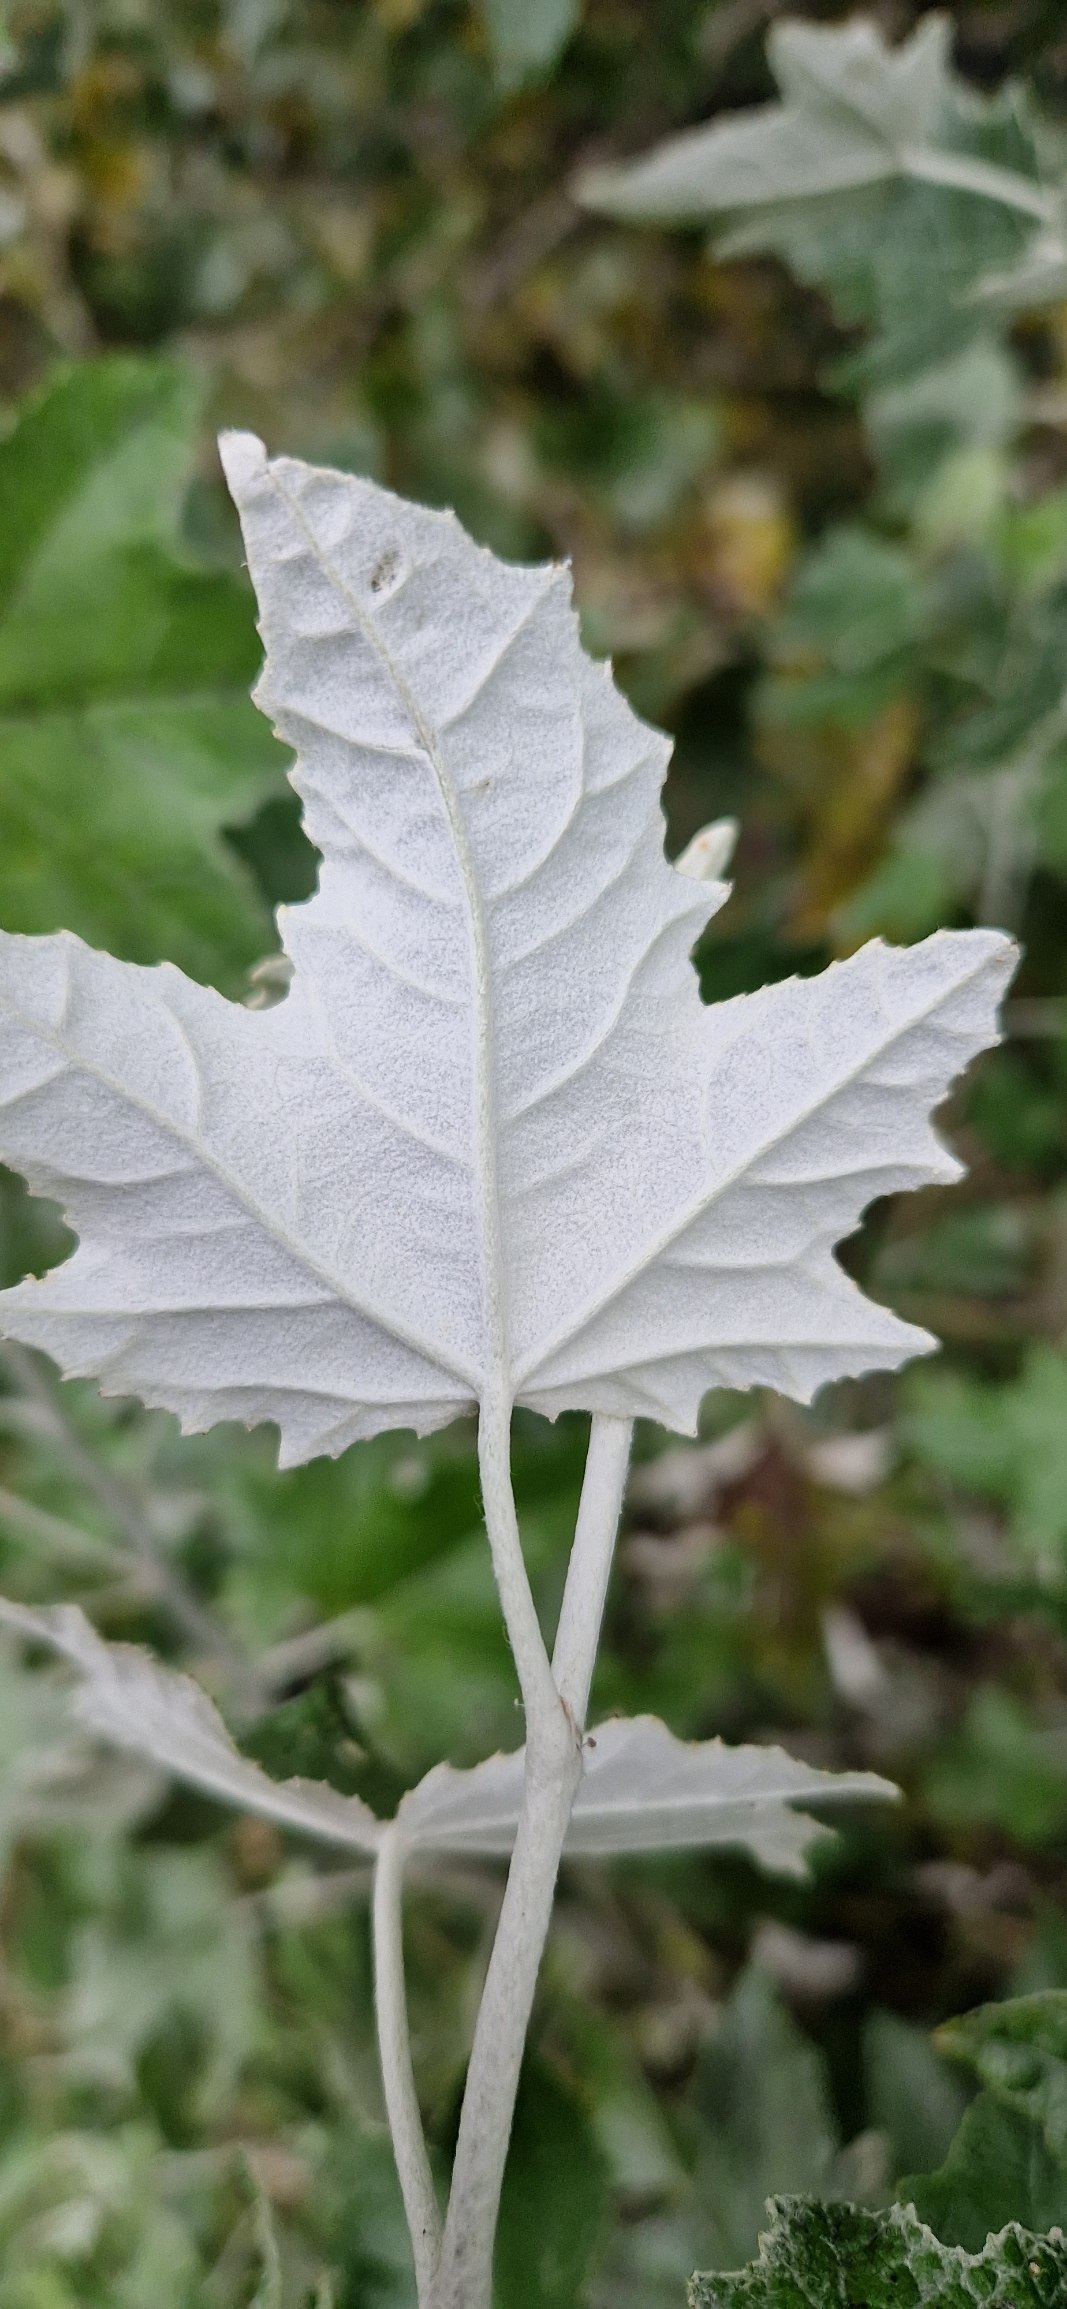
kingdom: Plantae
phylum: Tracheophyta
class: Magnoliopsida
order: Malpighiales
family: Salicaceae
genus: Populus
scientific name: Populus alba
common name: Sølv-poppel
